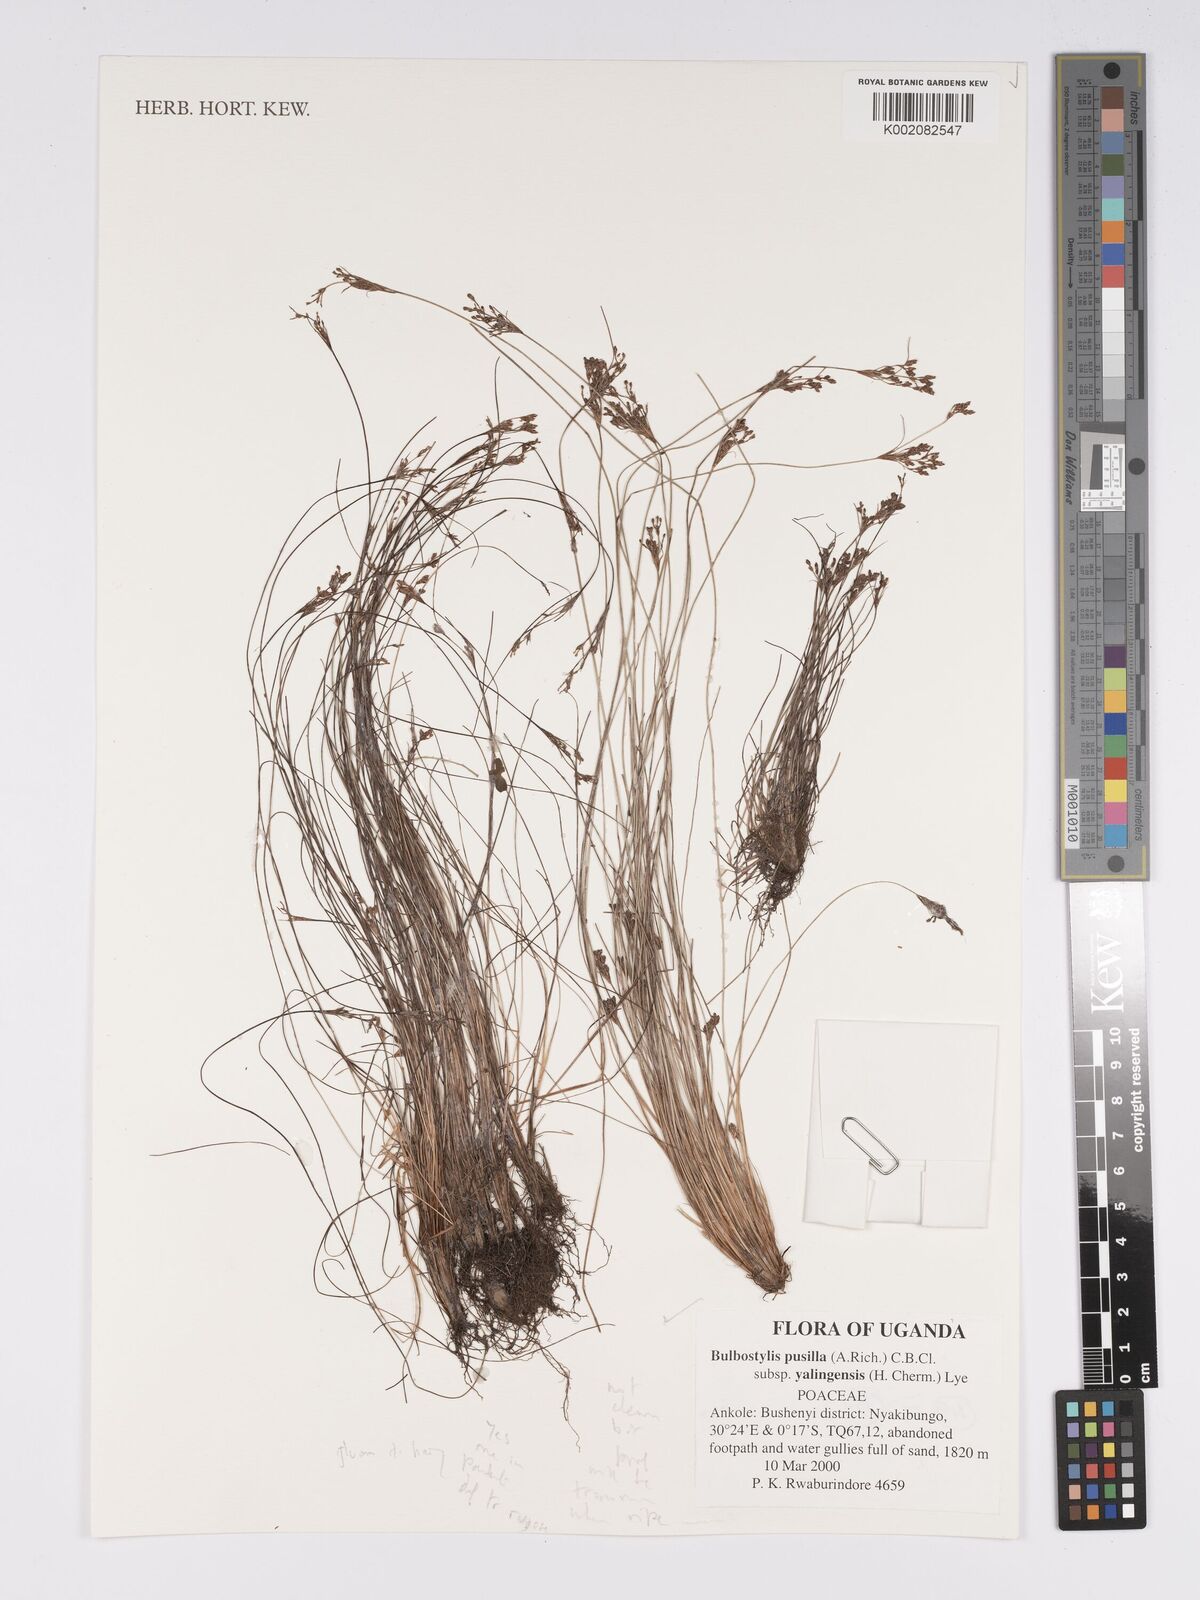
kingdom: Plantae
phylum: Tracheophyta
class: Liliopsida
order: Poales
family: Cyperaceae
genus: Bulbostylis
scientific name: Bulbostylis pusilla
